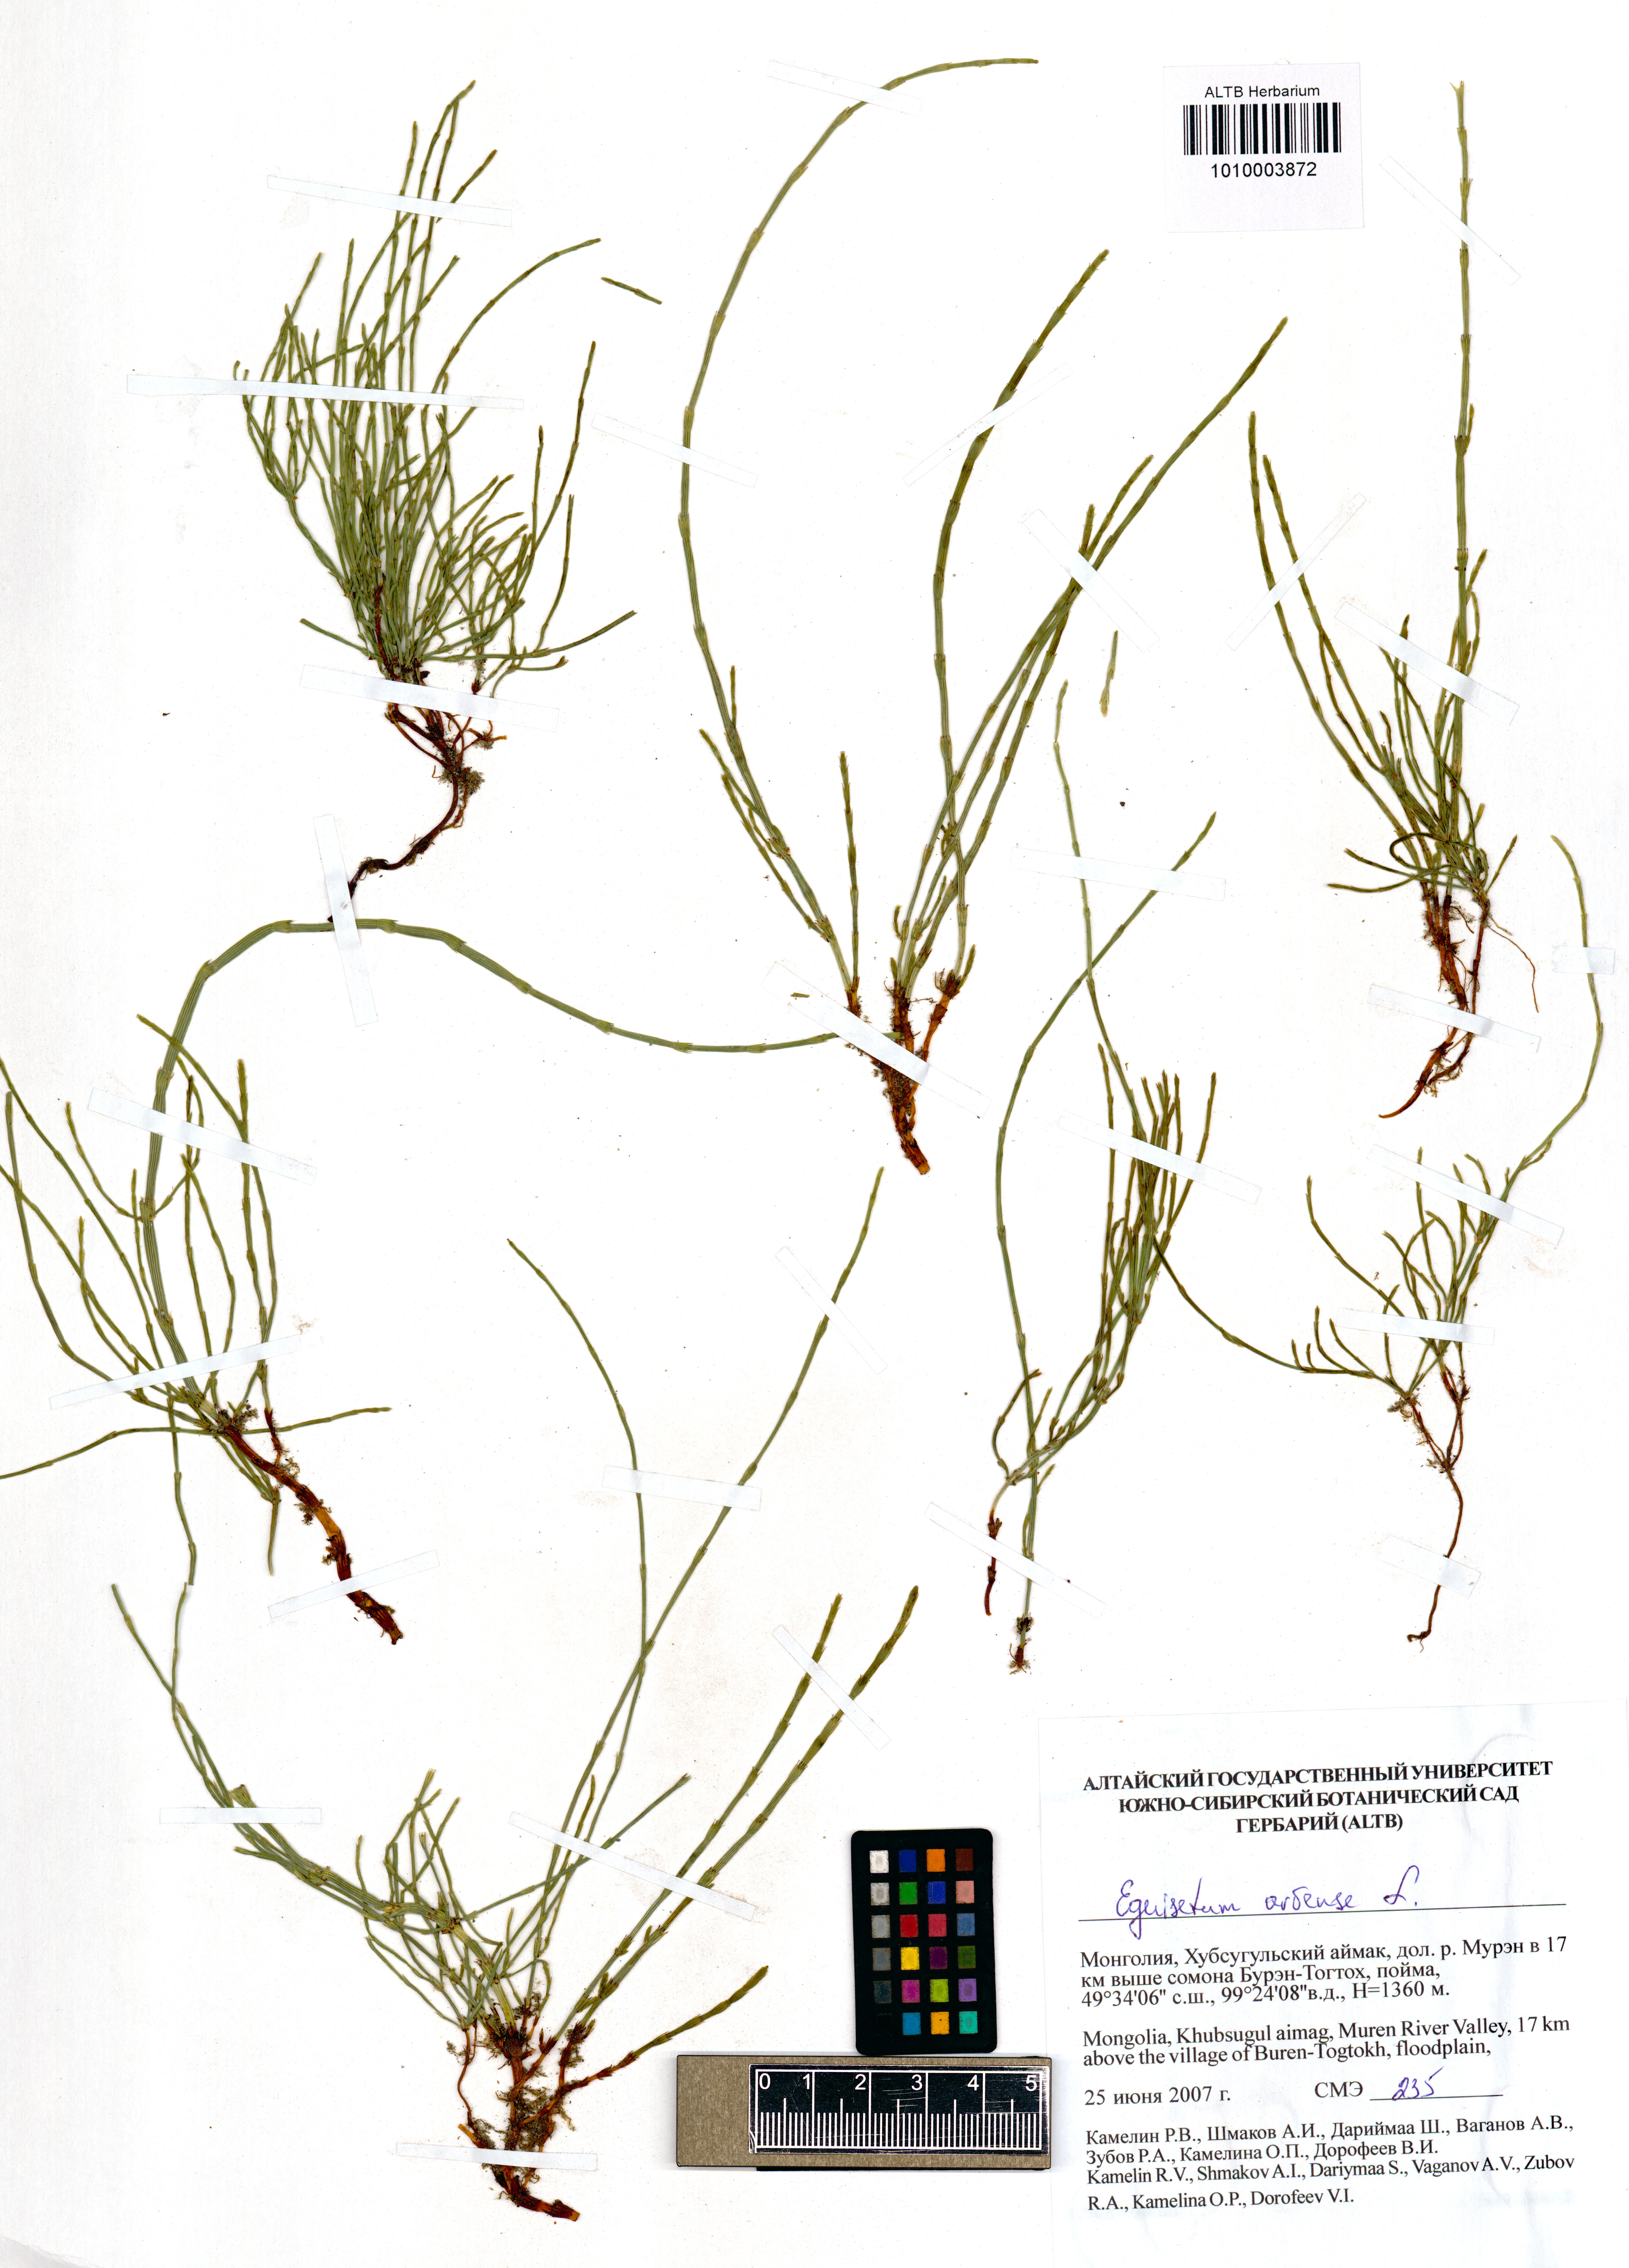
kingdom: Plantae
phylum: Tracheophyta
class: Polypodiopsida
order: Equisetales
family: Equisetaceae
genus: Equisetum
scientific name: Equisetum arvense
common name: Field horsetail
